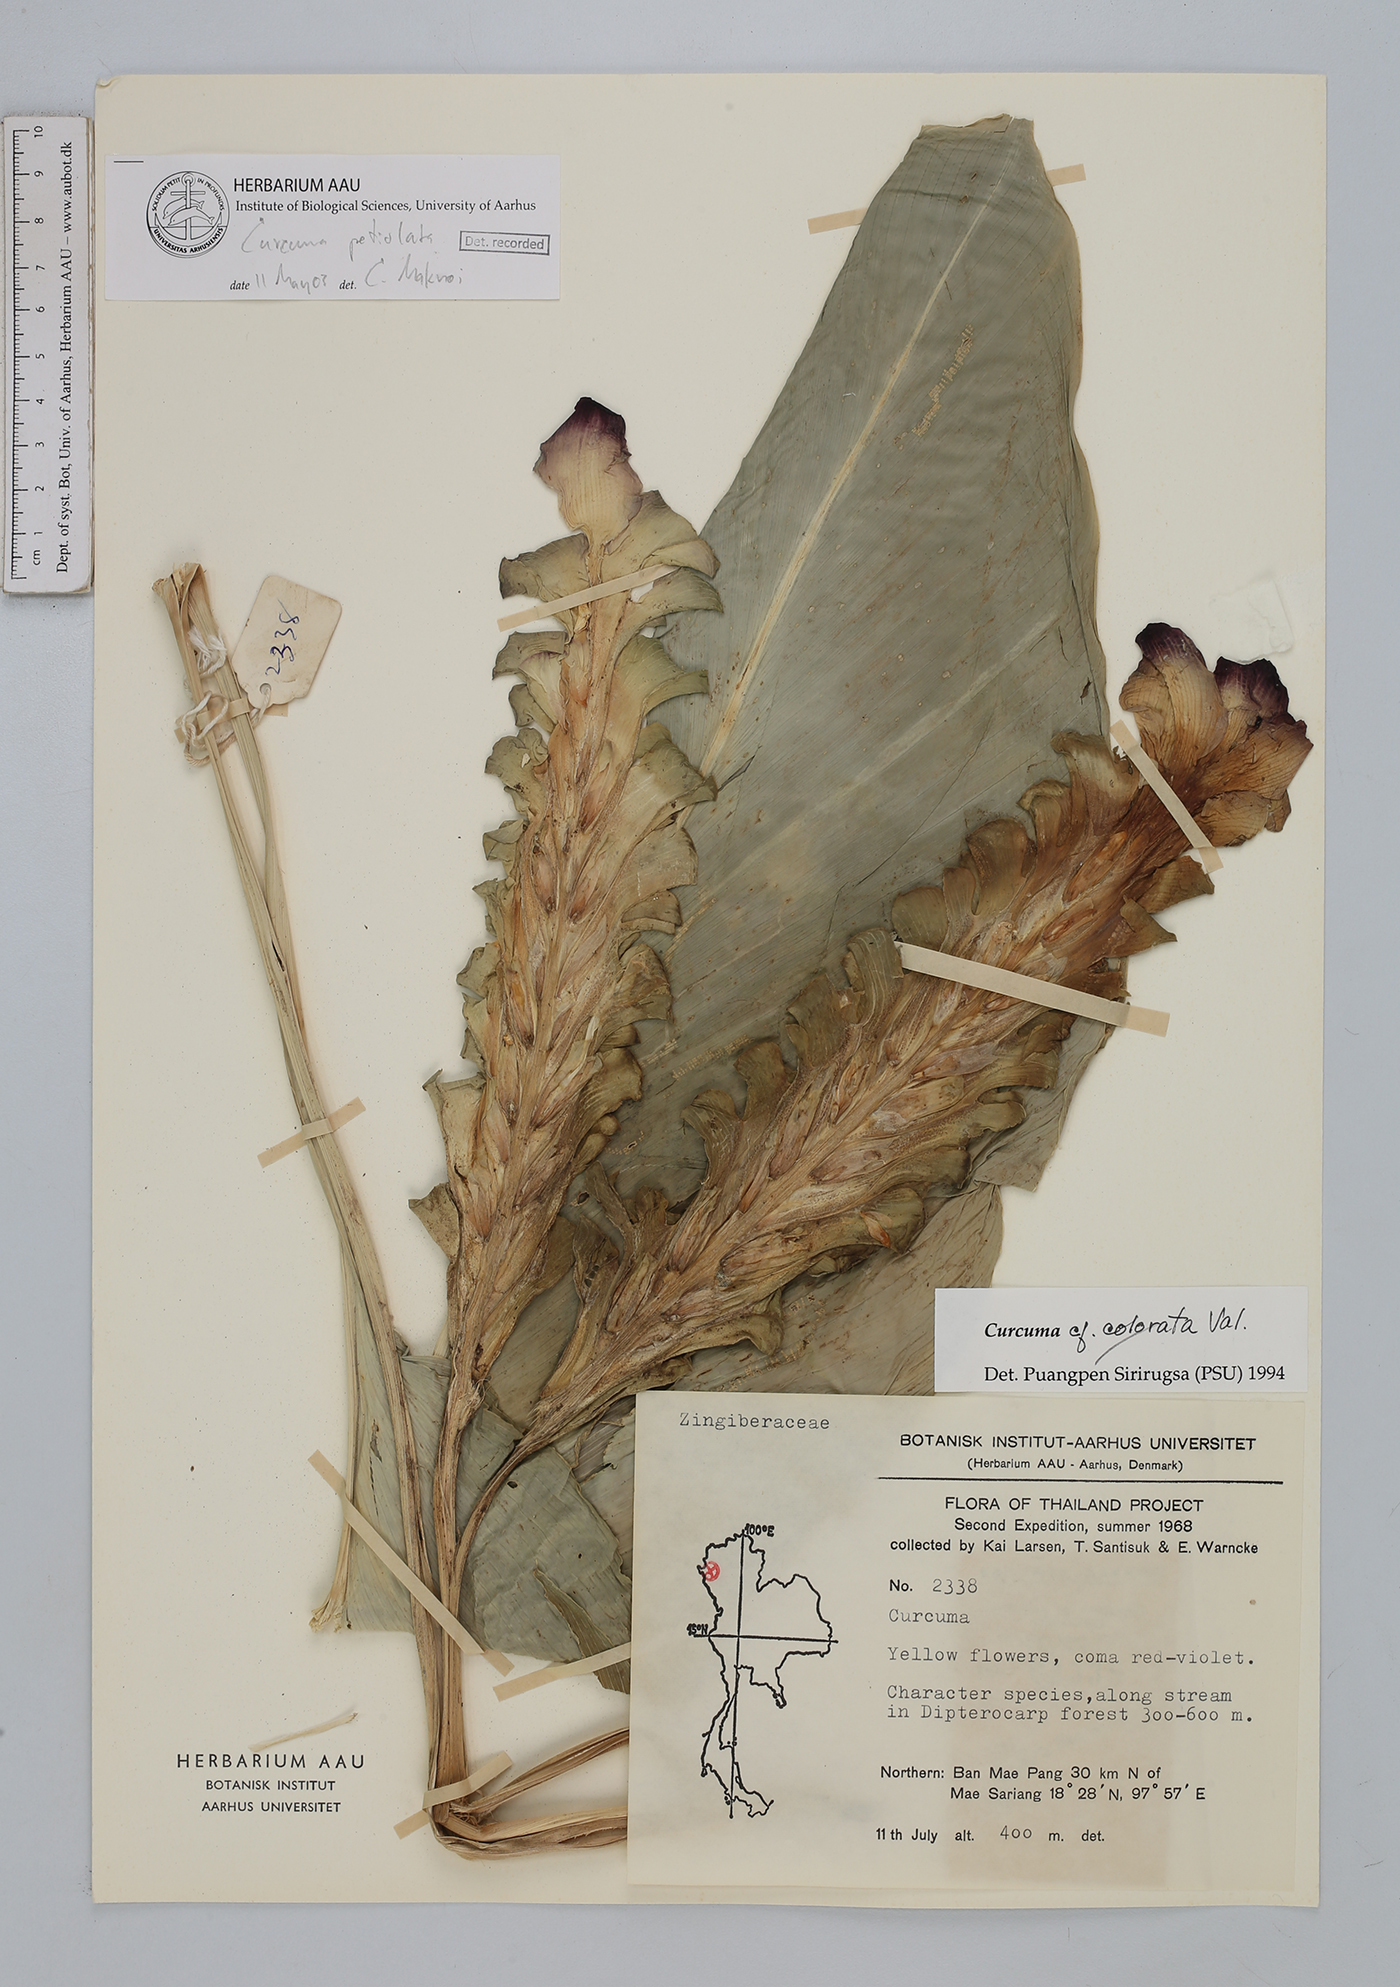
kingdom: Plantae
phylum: Tracheophyta
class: Liliopsida
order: Zingiberales
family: Zingiberaceae
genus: Curcuma
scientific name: Curcuma petiolata
